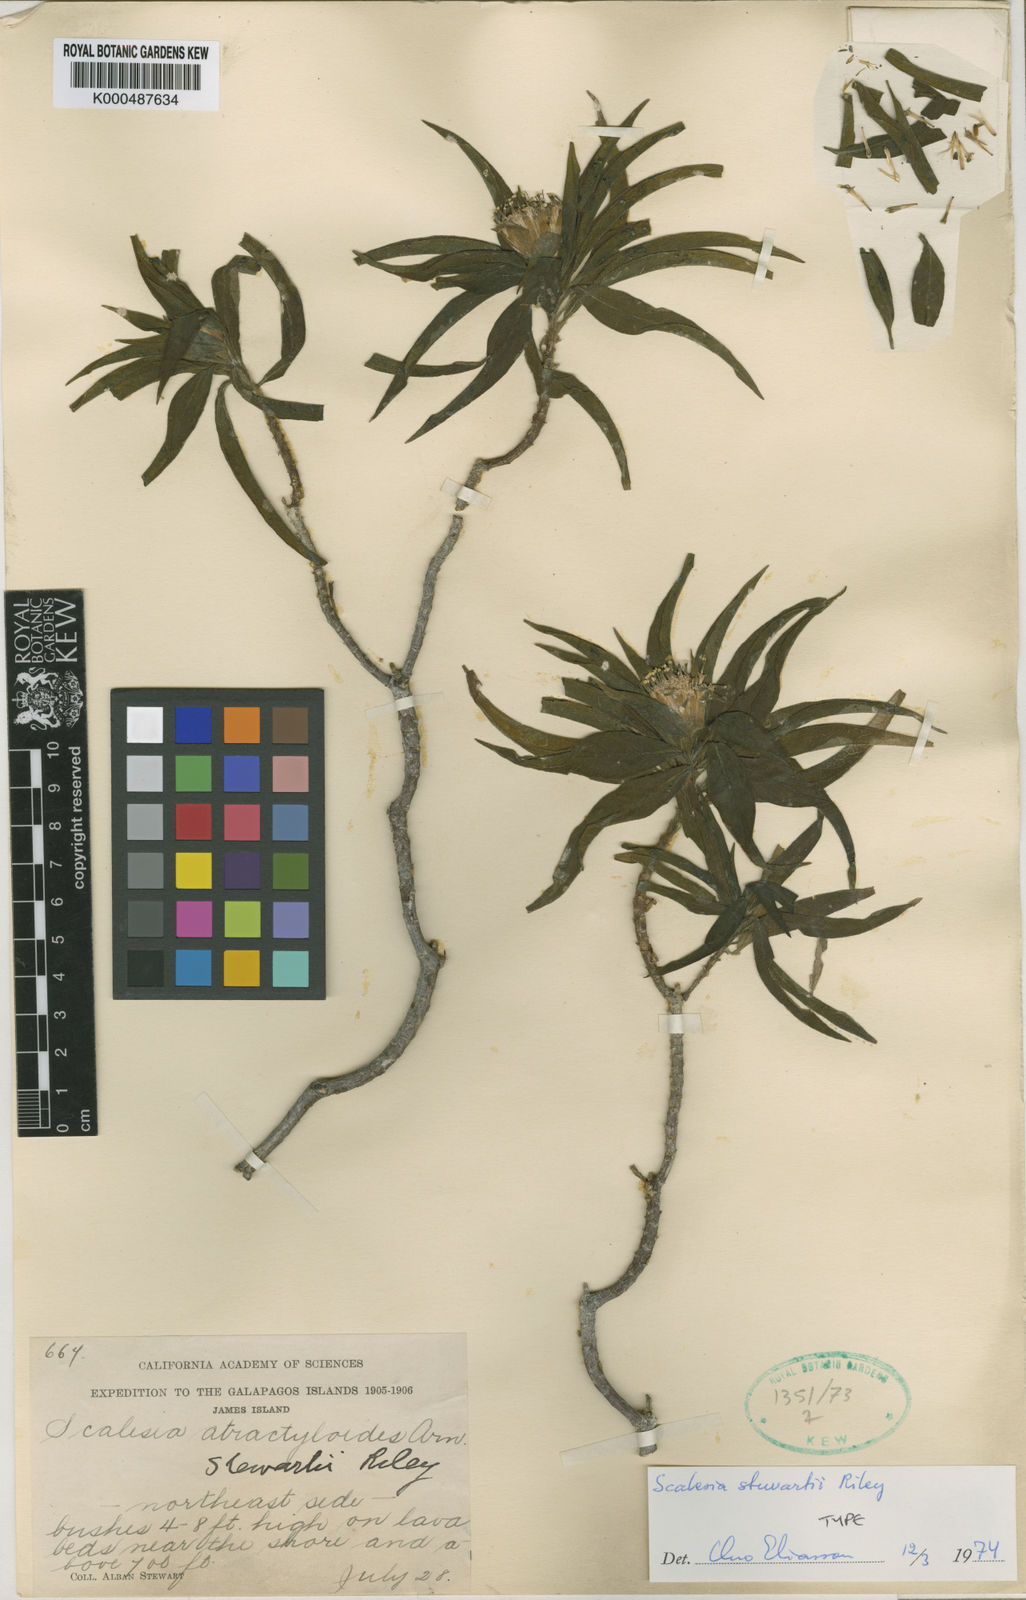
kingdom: Plantae
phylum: Tracheophyta
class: Magnoliopsida
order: Asterales
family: Asteraceae
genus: Scalesia
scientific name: Scalesia stewartii
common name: Stewart's scalesia
